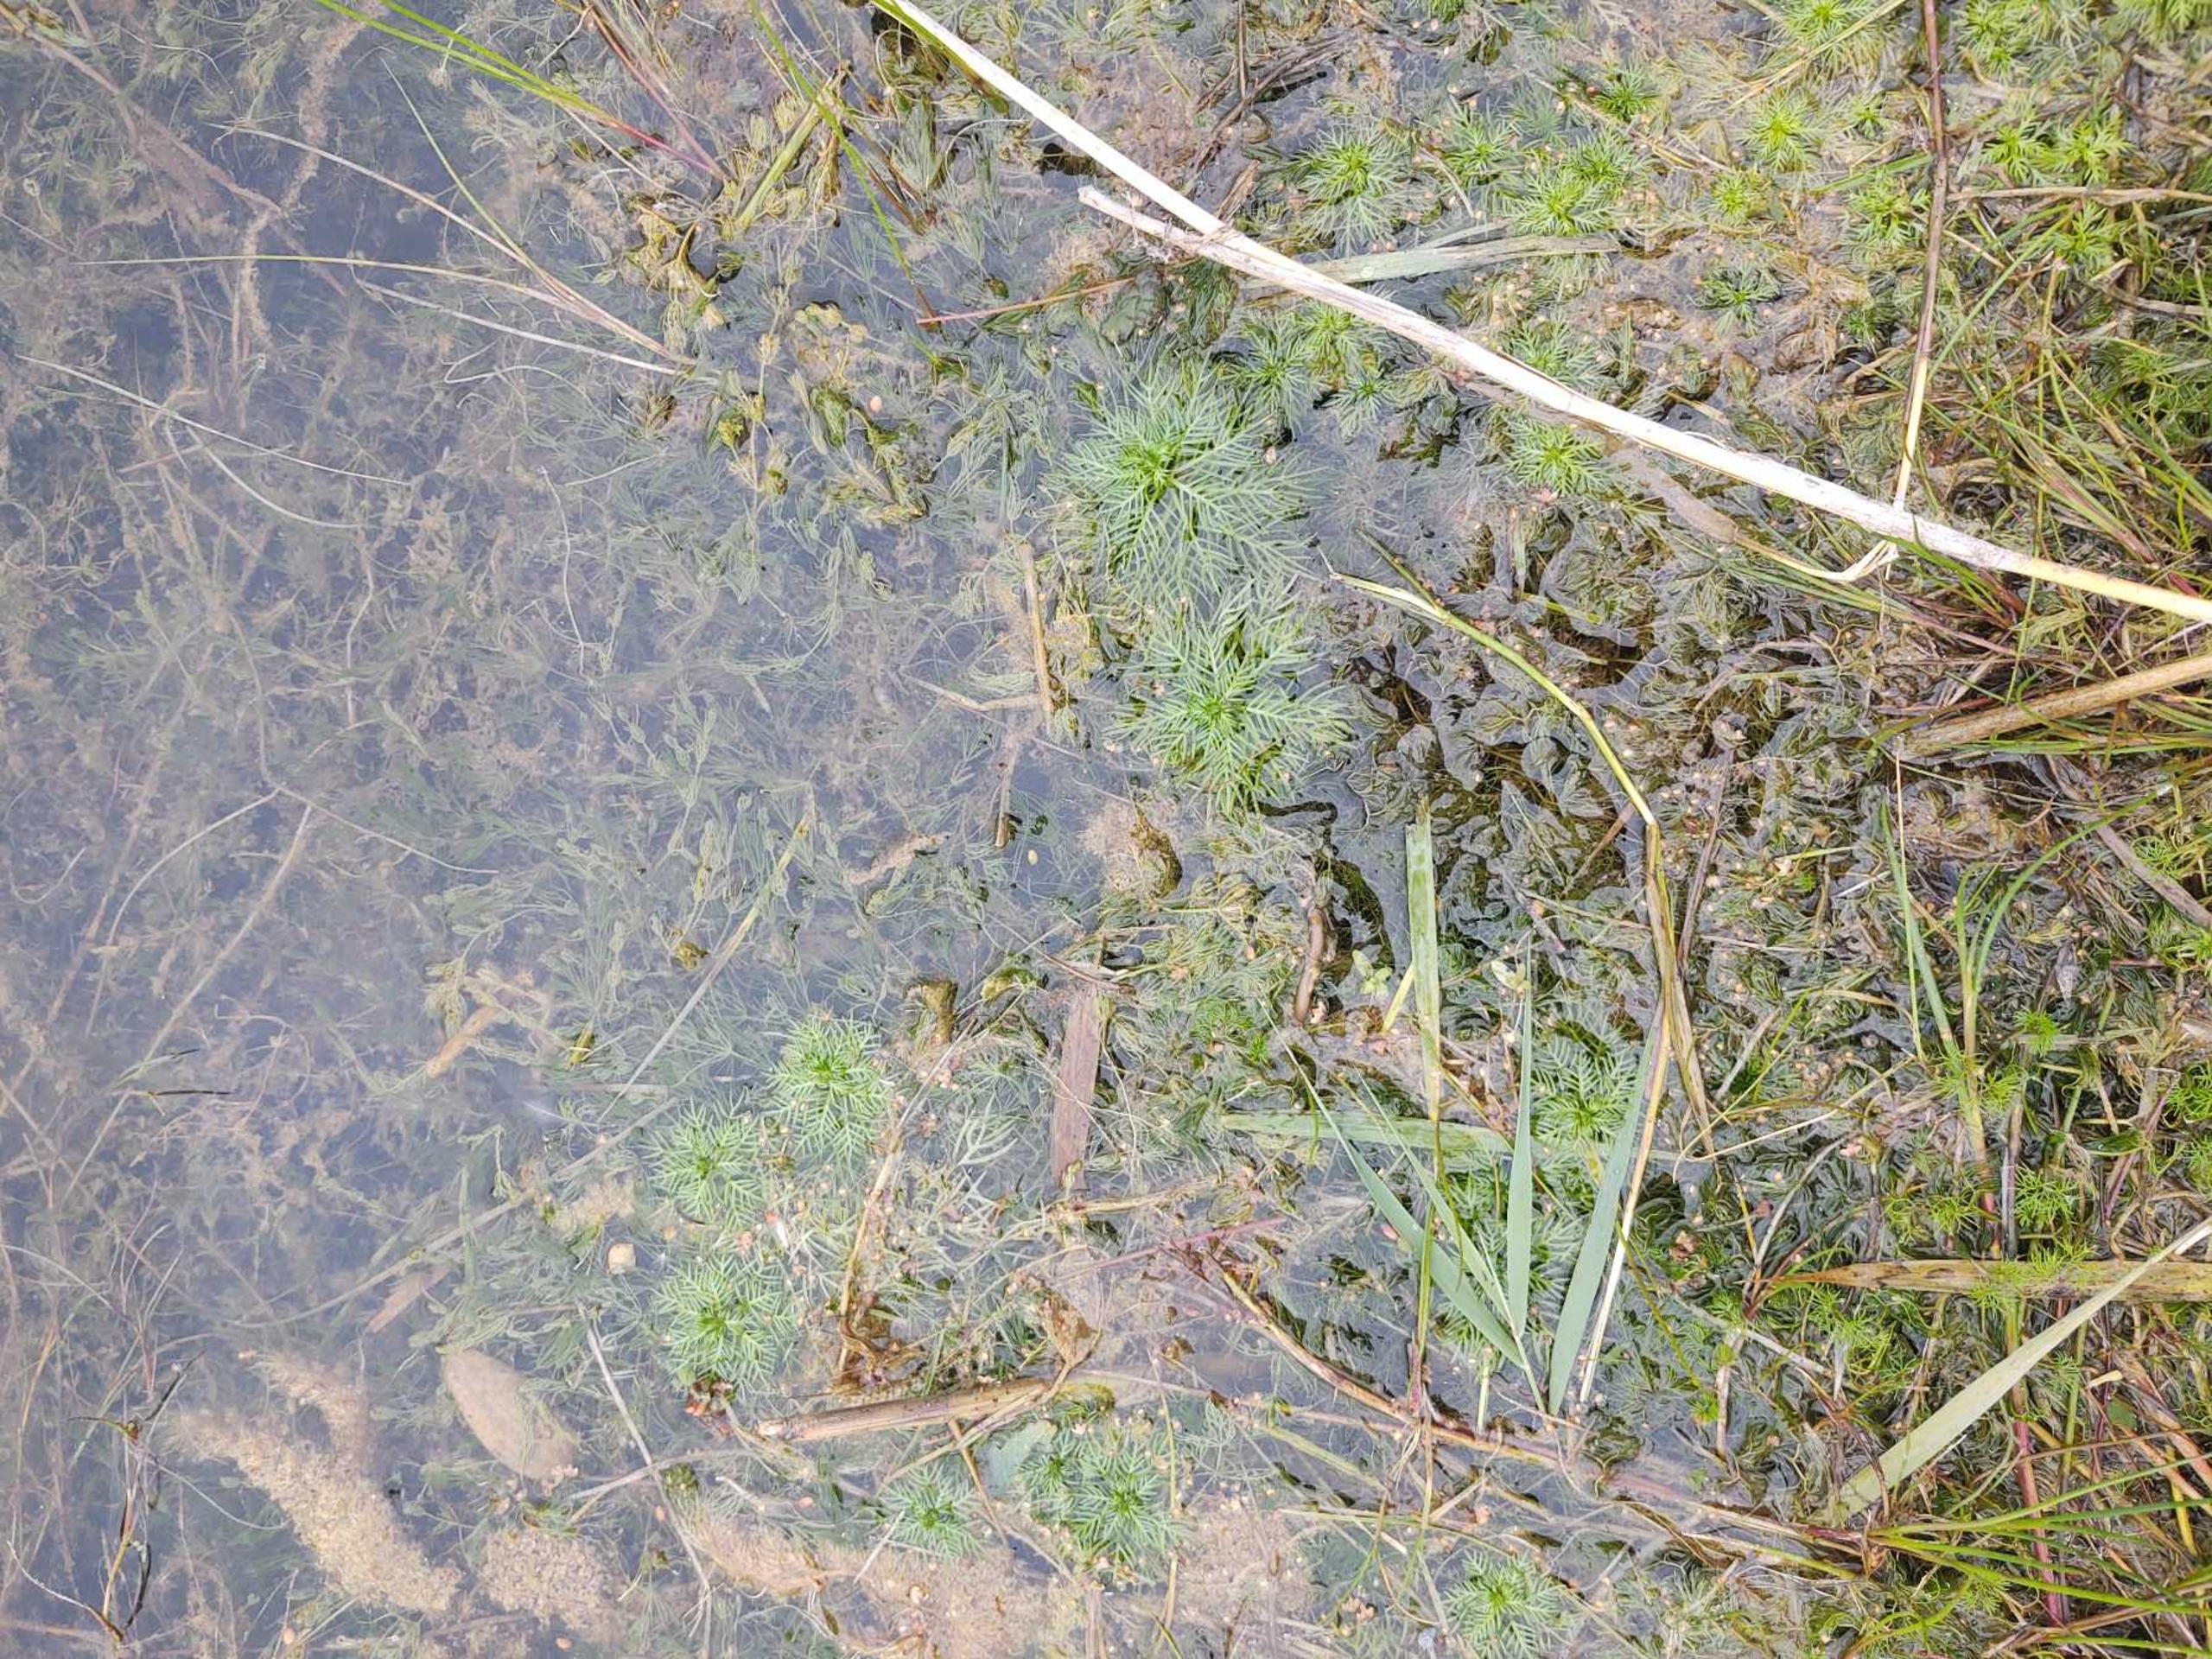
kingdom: Plantae
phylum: Tracheophyta
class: Magnoliopsida
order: Ericales
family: Primulaceae
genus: Hottonia
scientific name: Hottonia palustris
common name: Vandrøllike
